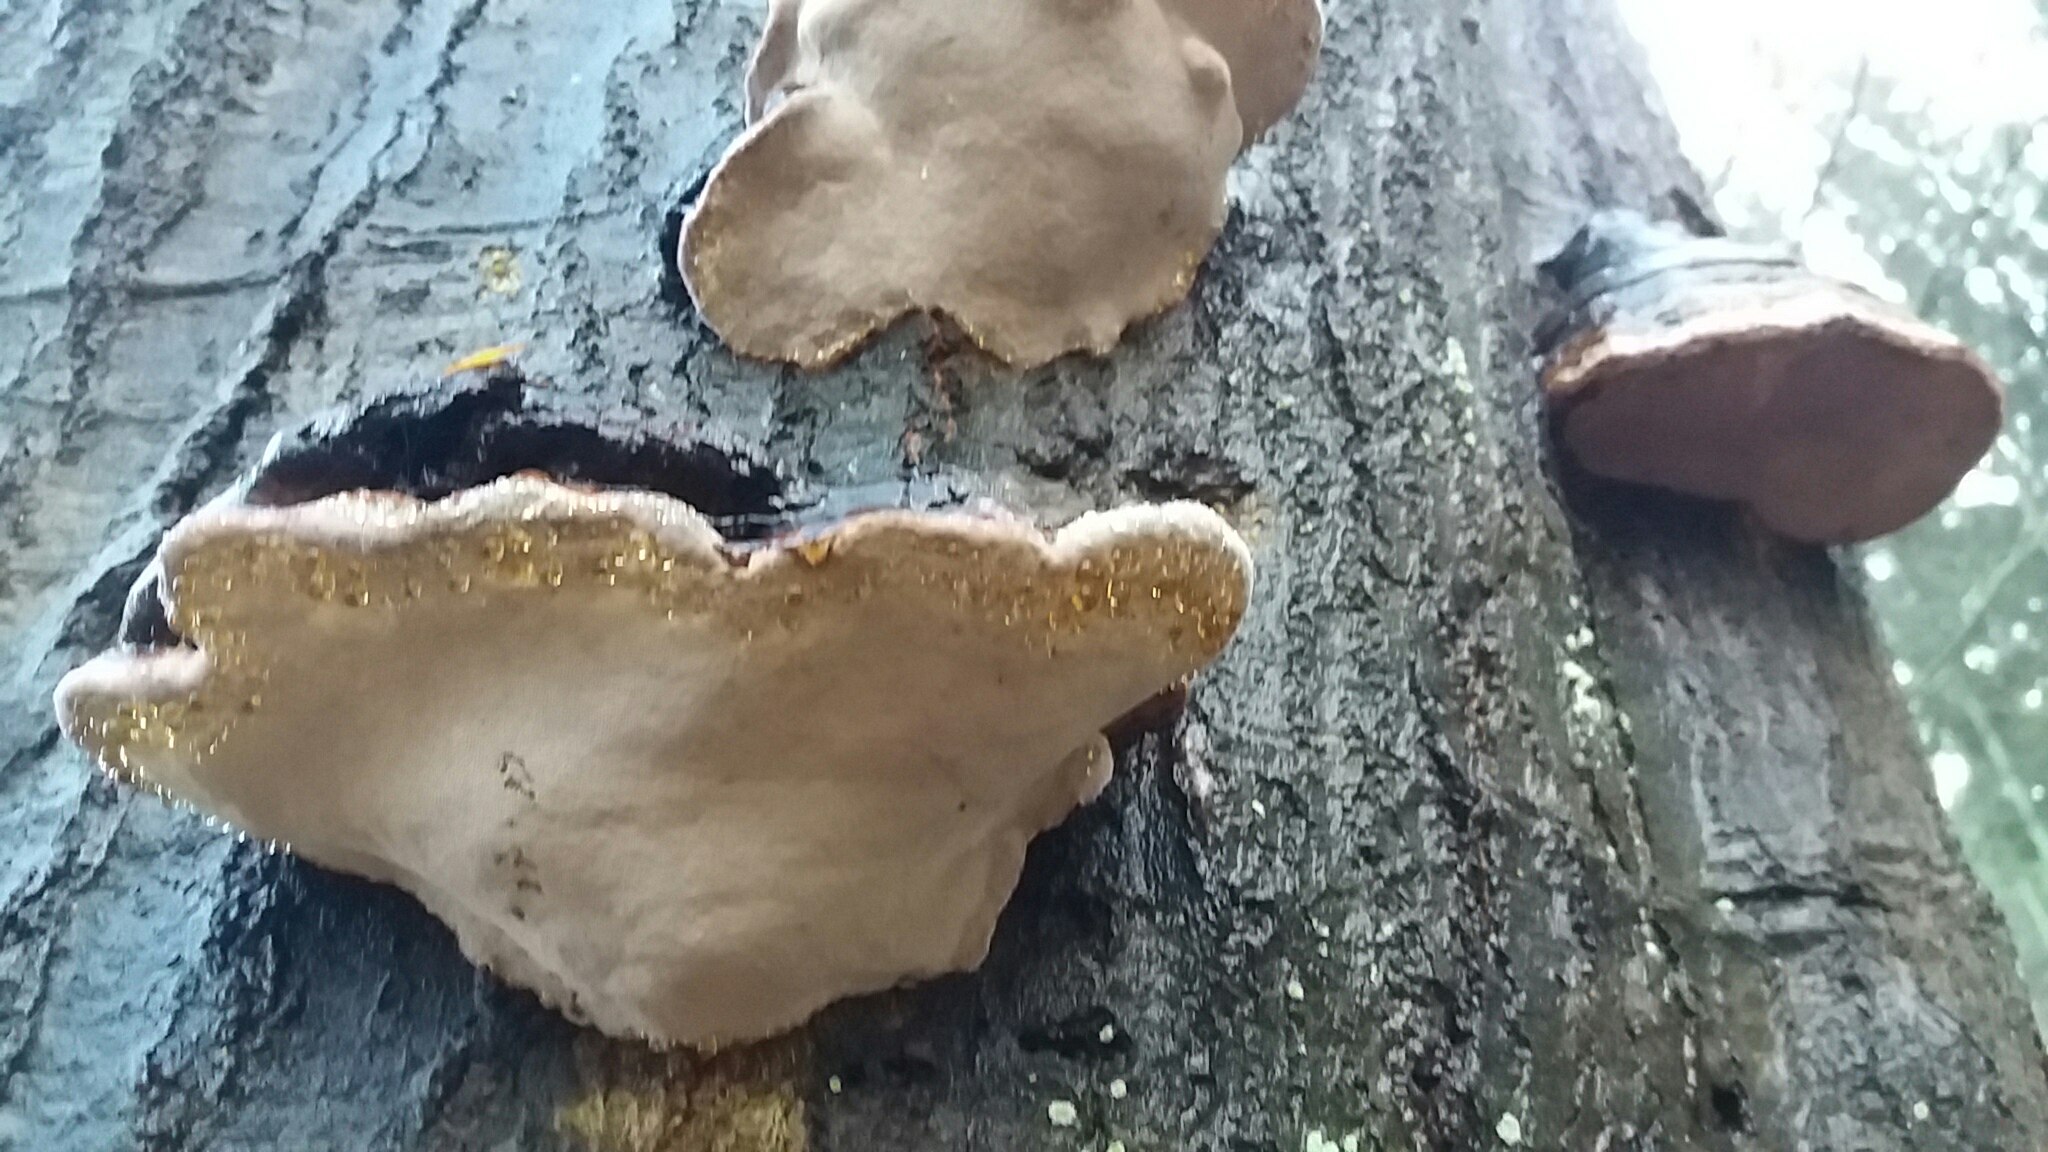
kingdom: Fungi
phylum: Basidiomycota
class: Agaricomycetes
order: Polyporales
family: Polyporaceae
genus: Fomes
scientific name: Fomes fomentarius
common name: tøndersvamp
